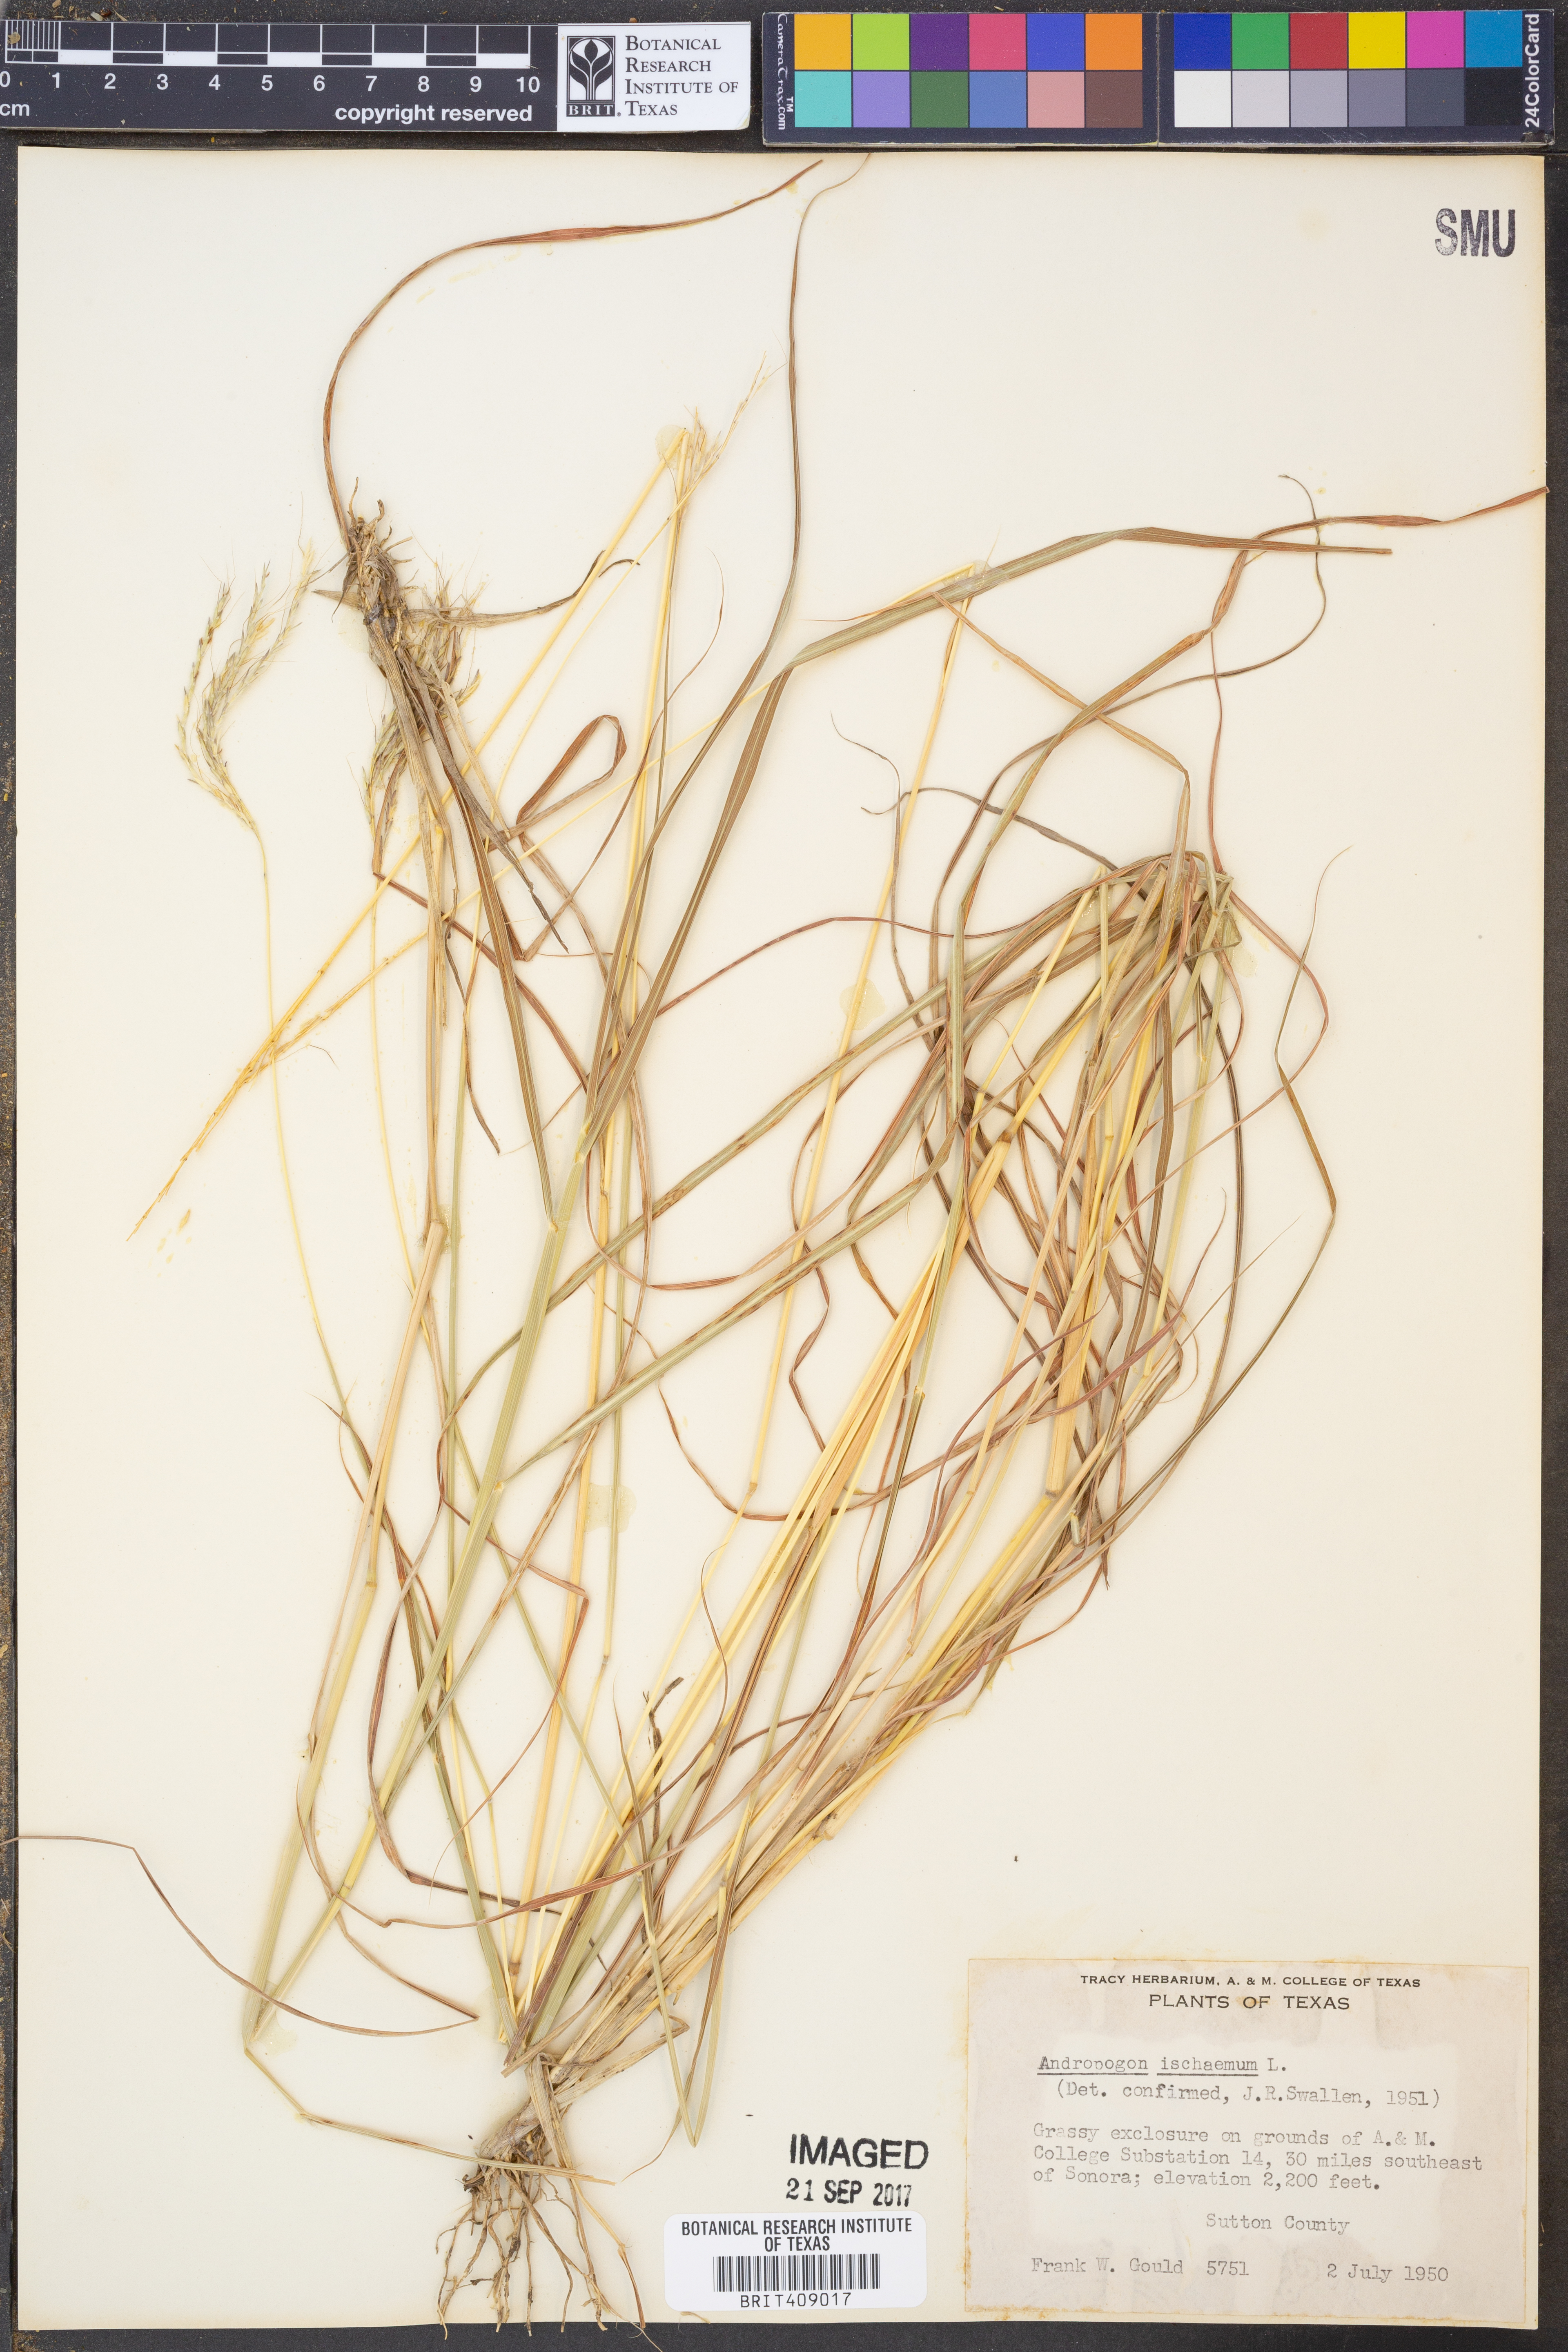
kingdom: Plantae
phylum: Tracheophyta
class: Liliopsida
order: Poales
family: Poaceae
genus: Andropogon
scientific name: Andropogon ischaemum
